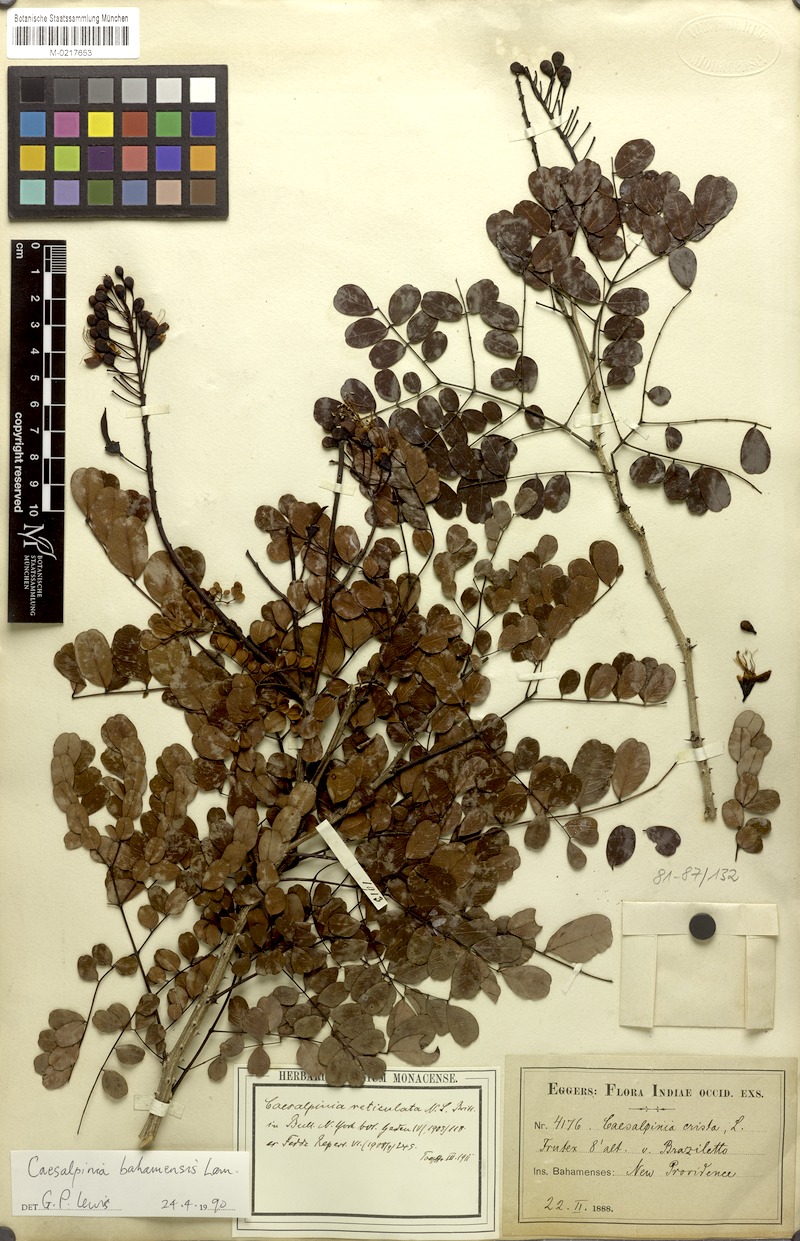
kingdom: Plantae
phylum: Tracheophyta
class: Magnoliopsida
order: Fabales
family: Fabaceae
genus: Caesalpinia
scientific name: Caesalpinia bahamensis
